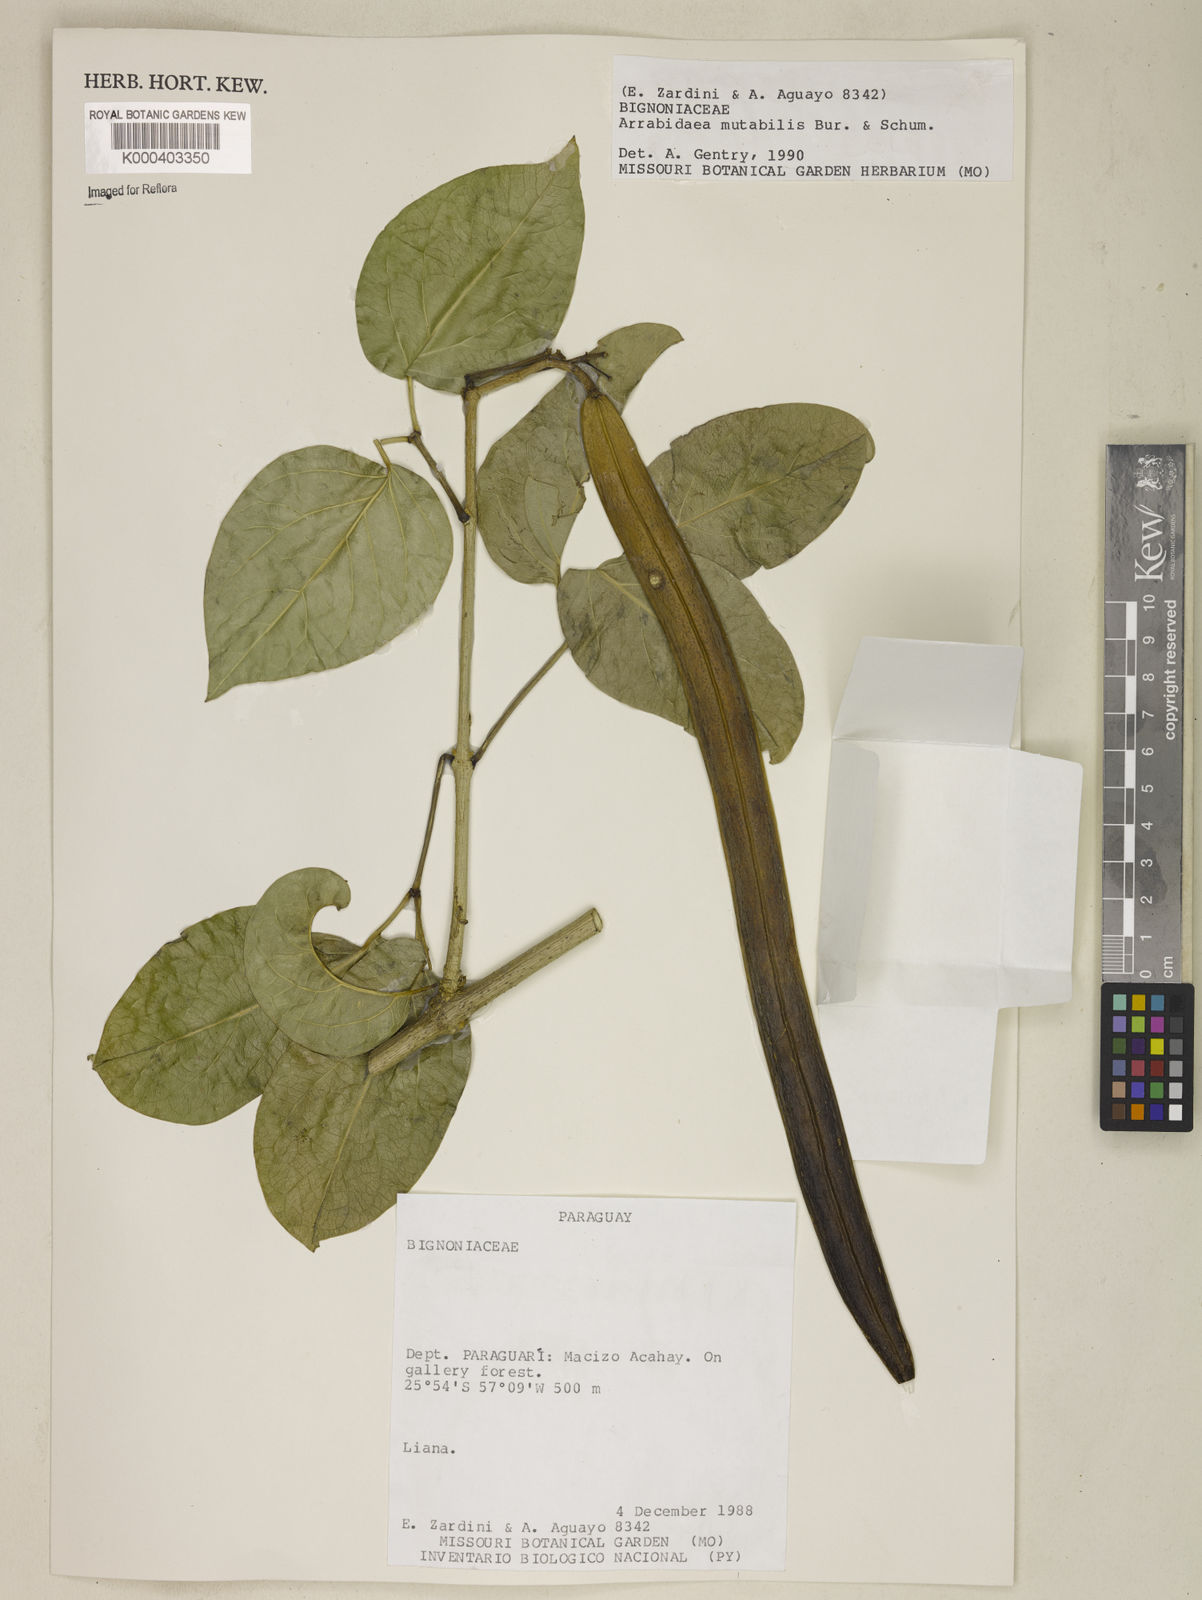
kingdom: Plantae
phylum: Tracheophyta
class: Magnoliopsida
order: Lamiales
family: Bignoniaceae
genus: Fridericia
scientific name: Fridericia mutabilis
